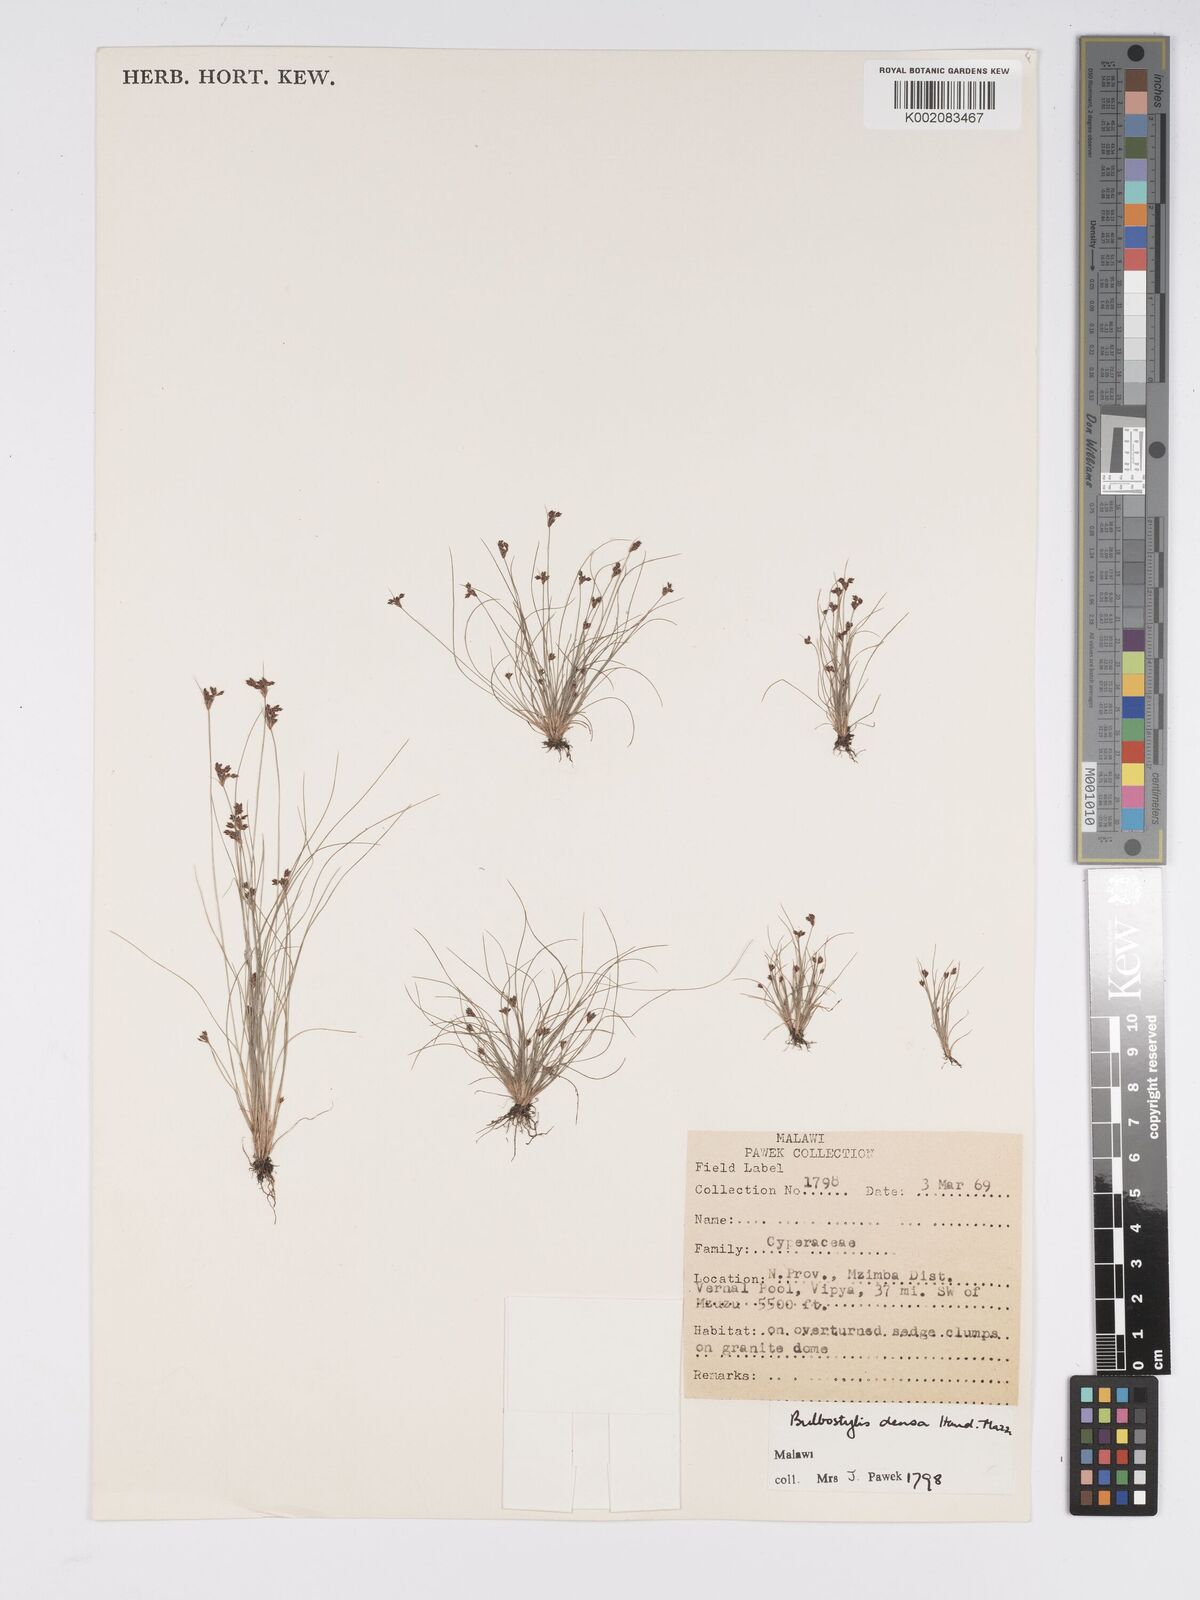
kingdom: Plantae
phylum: Tracheophyta
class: Liliopsida
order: Poales
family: Cyperaceae
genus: Bulbostylis
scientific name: Bulbostylis capillaris
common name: Densetuft hairsedge
